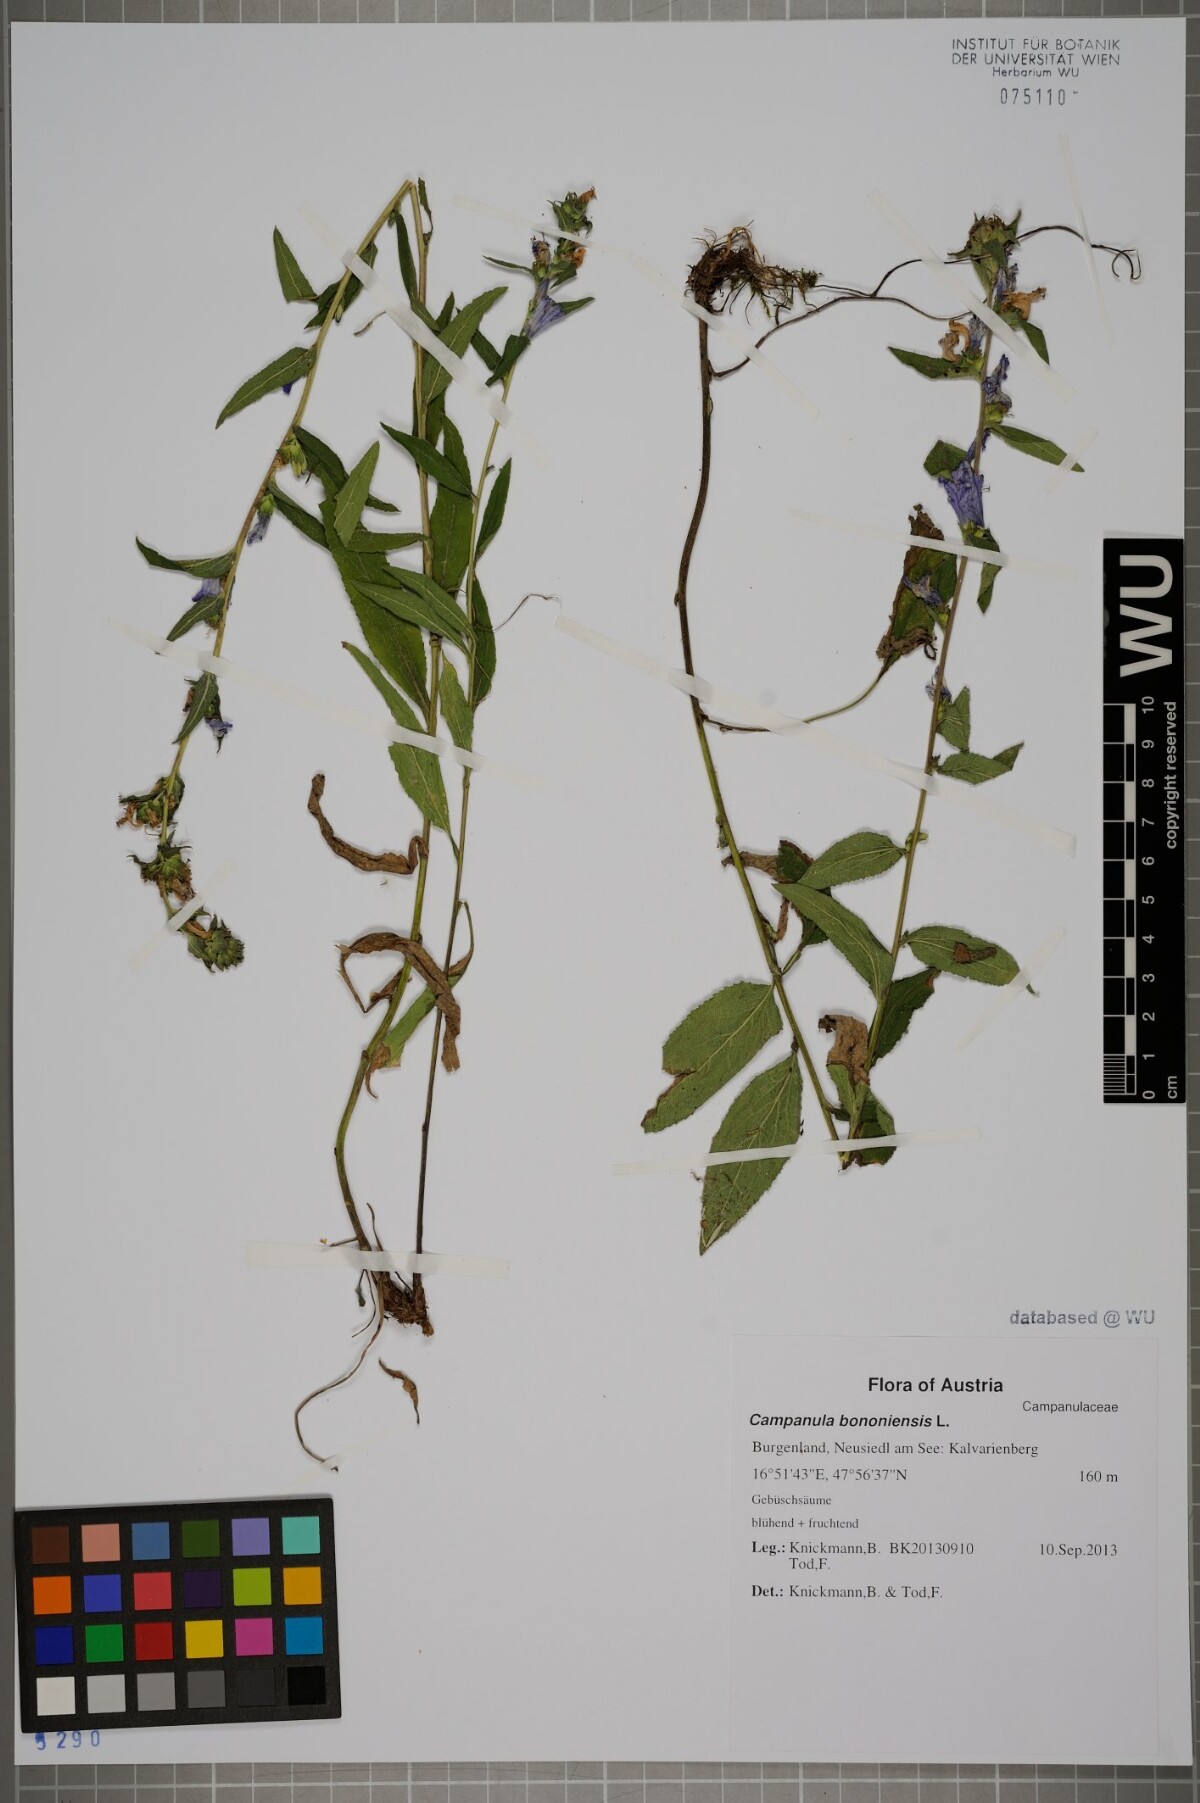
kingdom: Plantae
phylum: Tracheophyta
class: Magnoliopsida
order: Asterales
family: Campanulaceae
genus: Campanula
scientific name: Campanula bononiensis
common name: Pale bellflower
